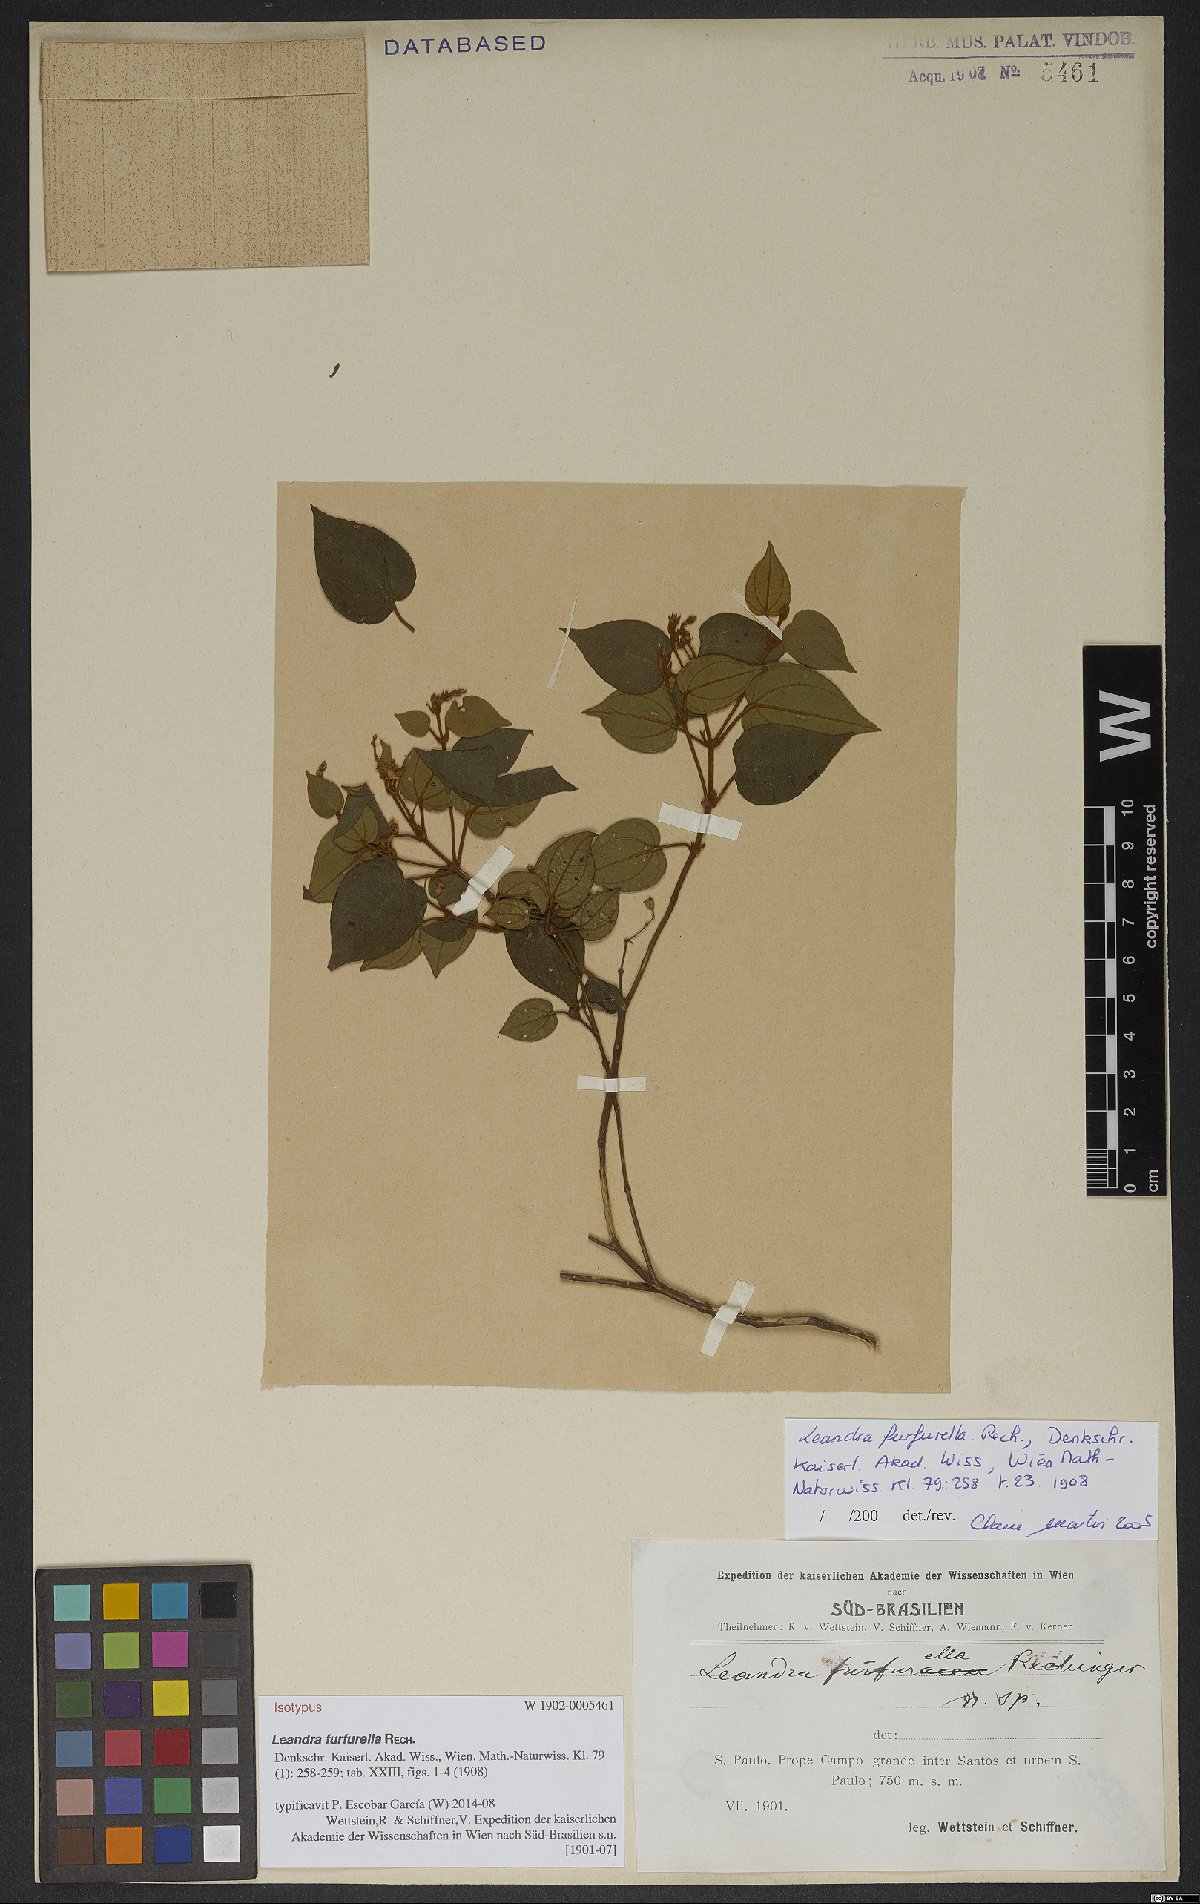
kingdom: Plantae
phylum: Tracheophyta
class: Magnoliopsida
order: Myrtales
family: Melastomataceae
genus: Miconia
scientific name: Miconia cordigera
